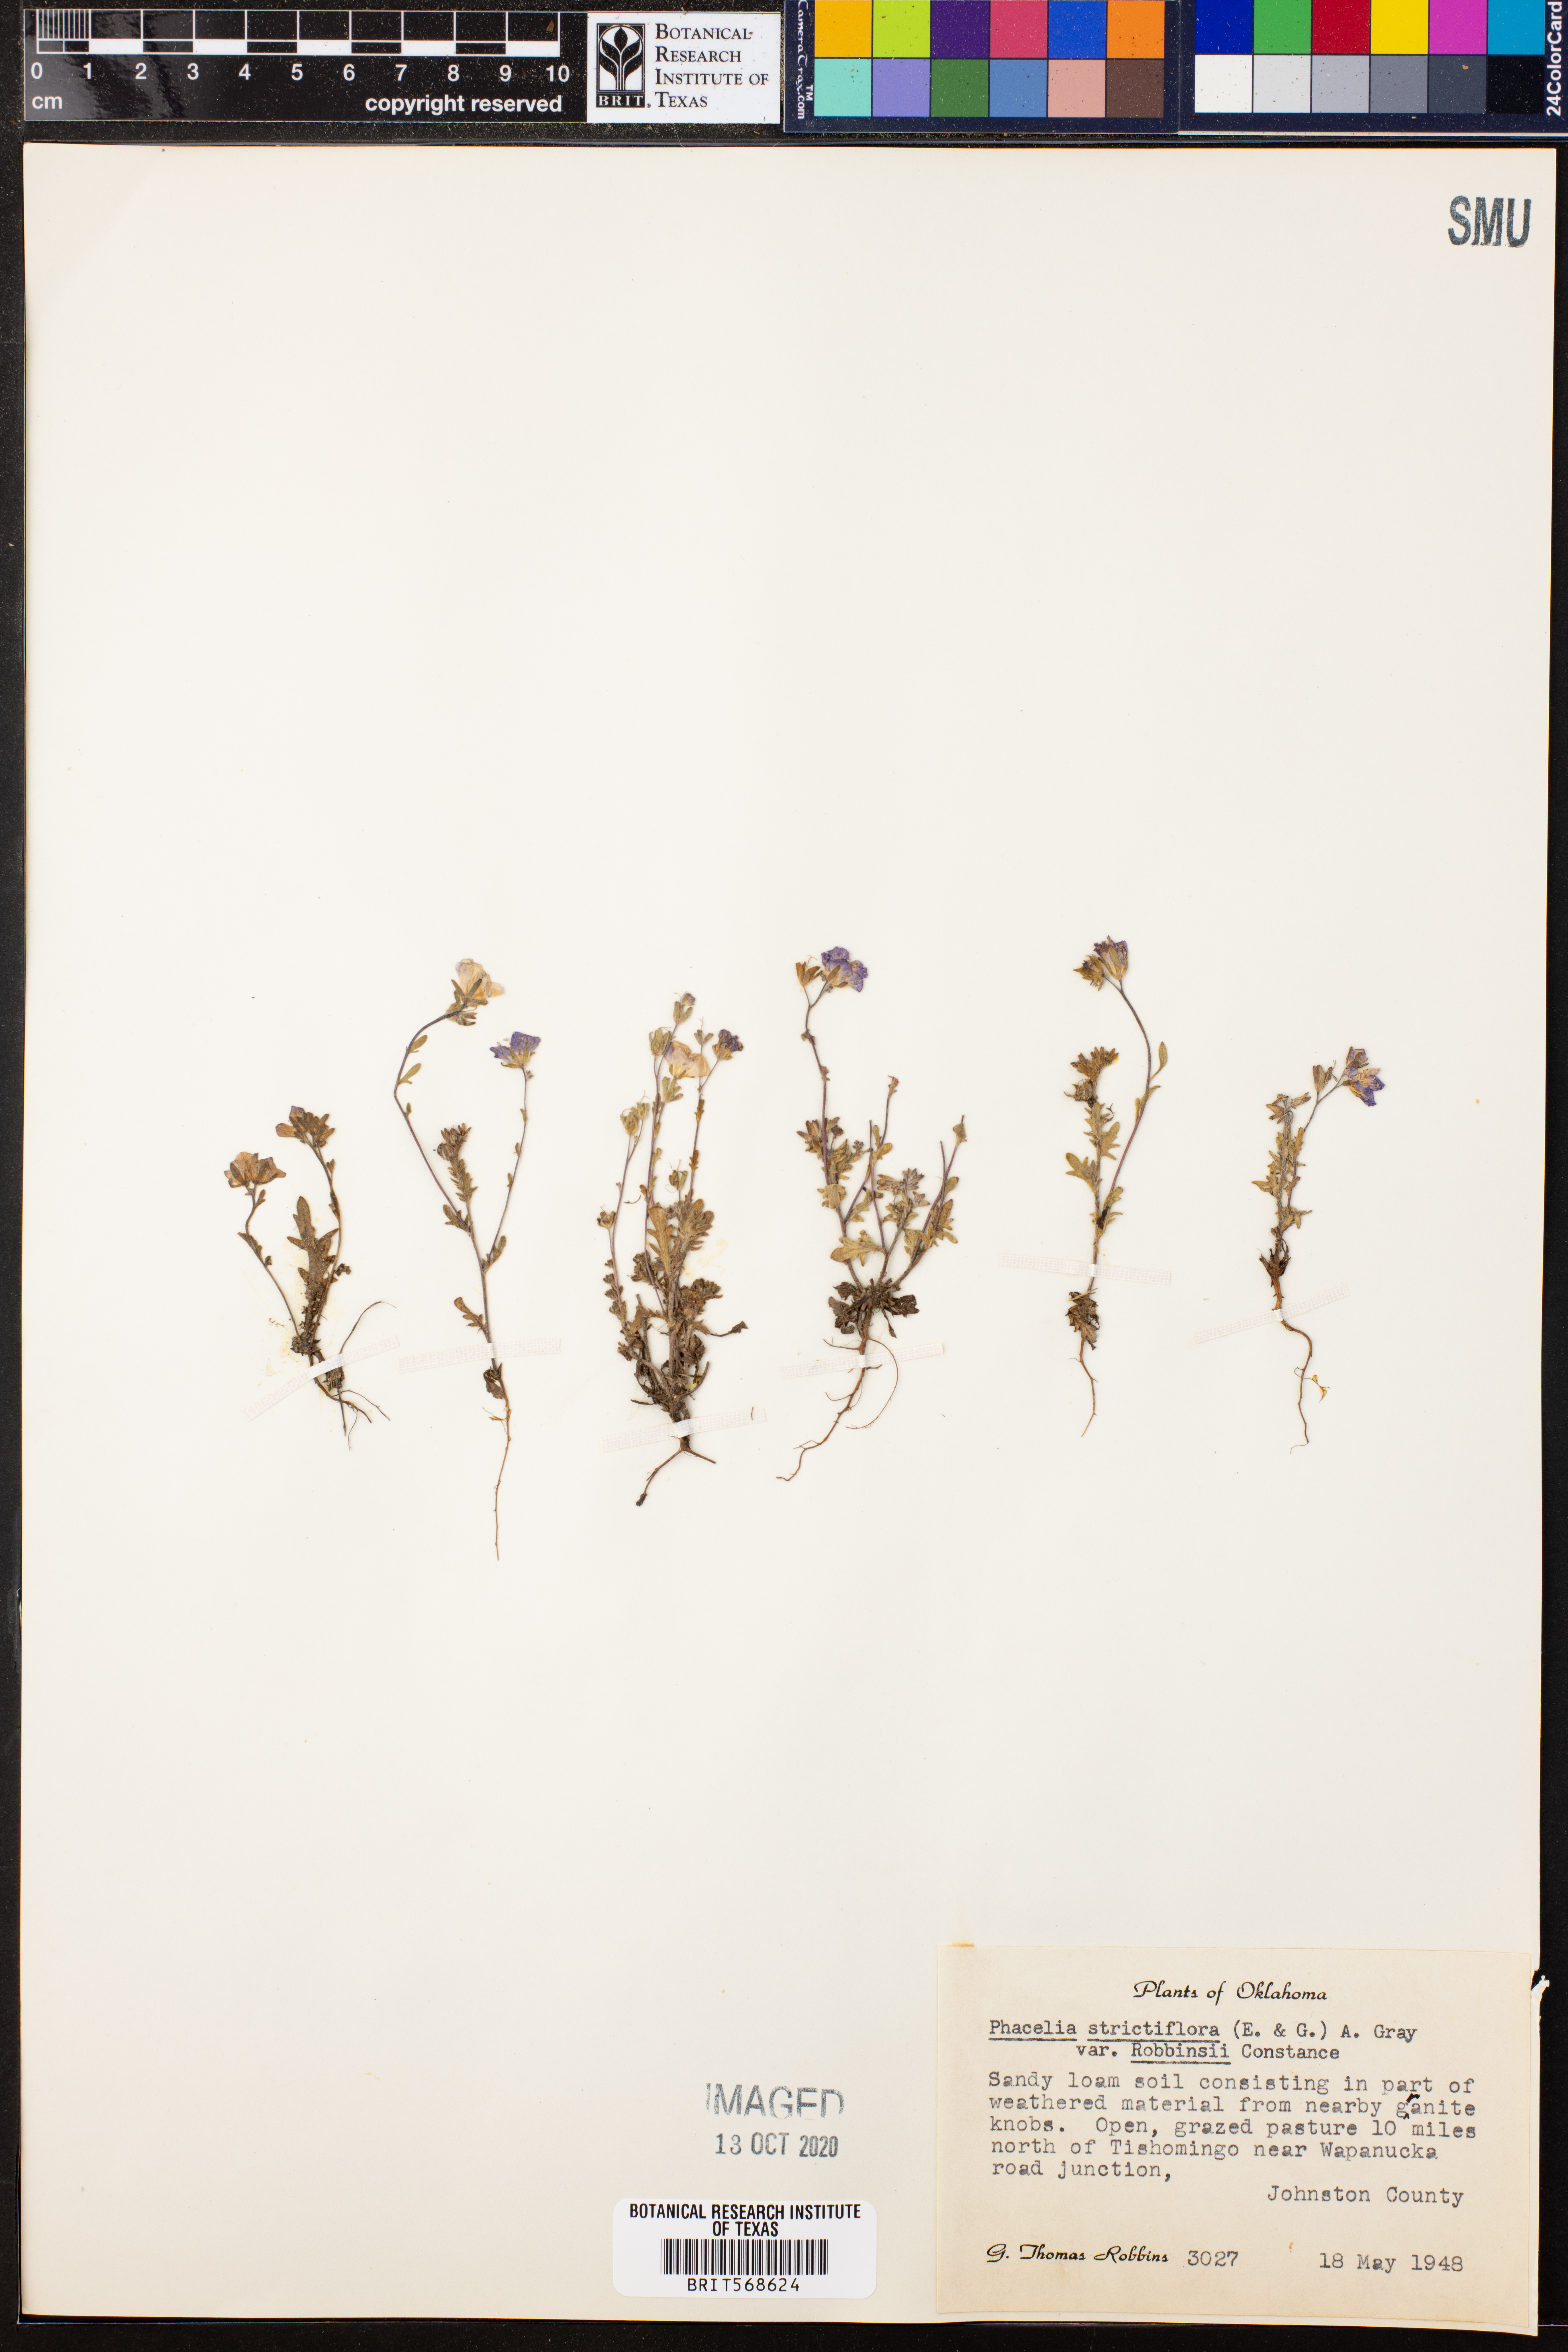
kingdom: Plantae
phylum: Tracheophyta
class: Magnoliopsida
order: Boraginales
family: Hydrophyllaceae
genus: Phacelia
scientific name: Phacelia strictiflora
